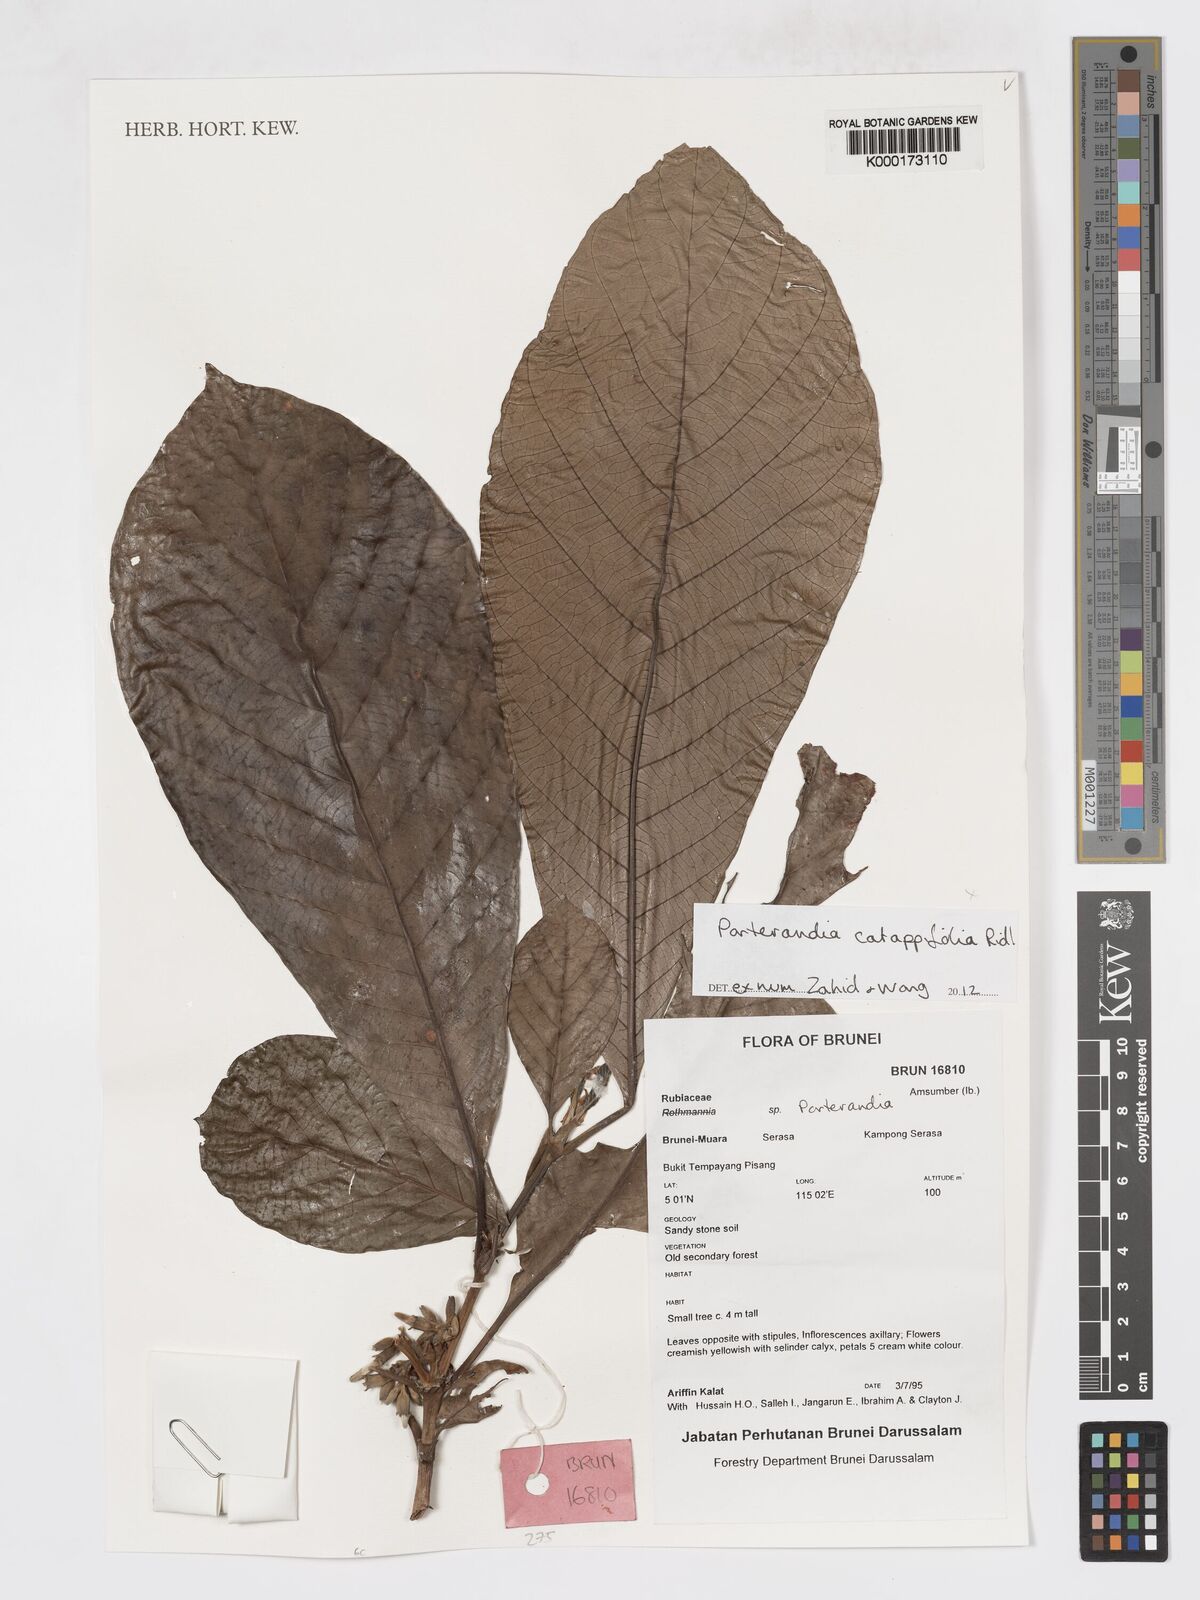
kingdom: Plantae
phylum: Tracheophyta
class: Magnoliopsida
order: Gentianales
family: Rubiaceae
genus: Porterandia
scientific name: Porterandia catappifolia
